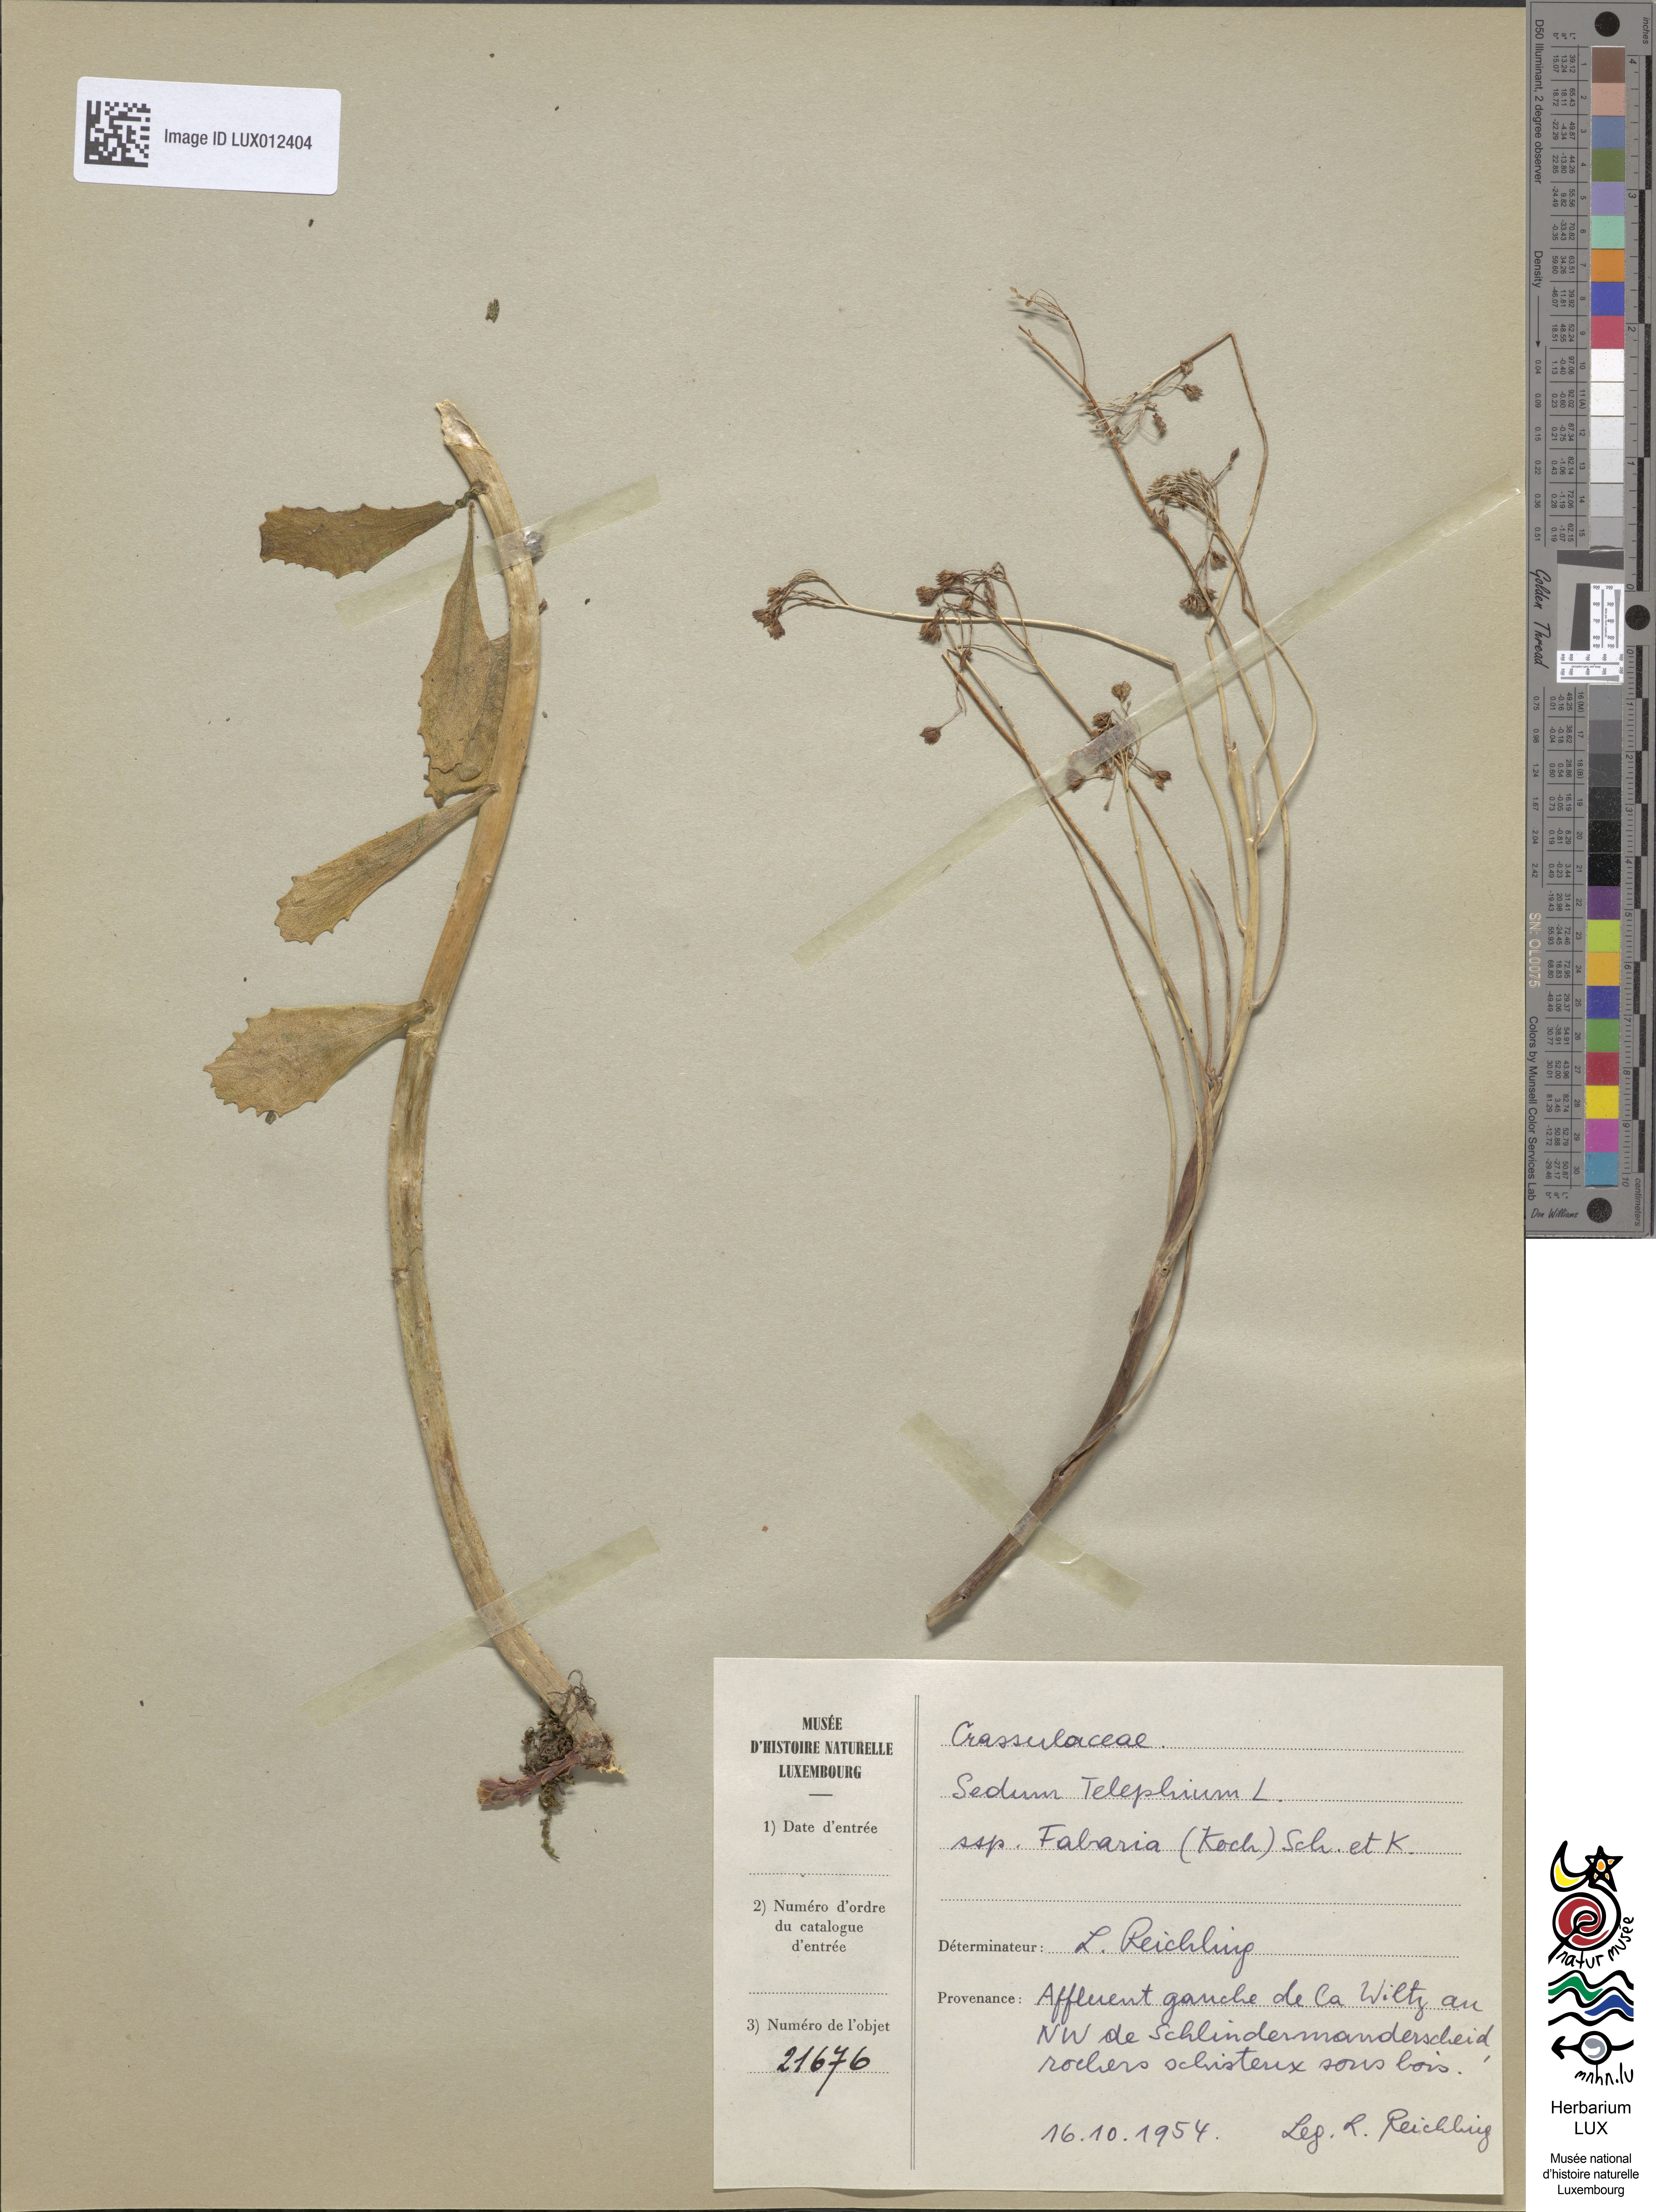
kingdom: Plantae
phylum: Tracheophyta
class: Magnoliopsida
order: Saxifragales
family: Crassulaceae
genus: Hylotelephium
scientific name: Hylotelephium vulgare
